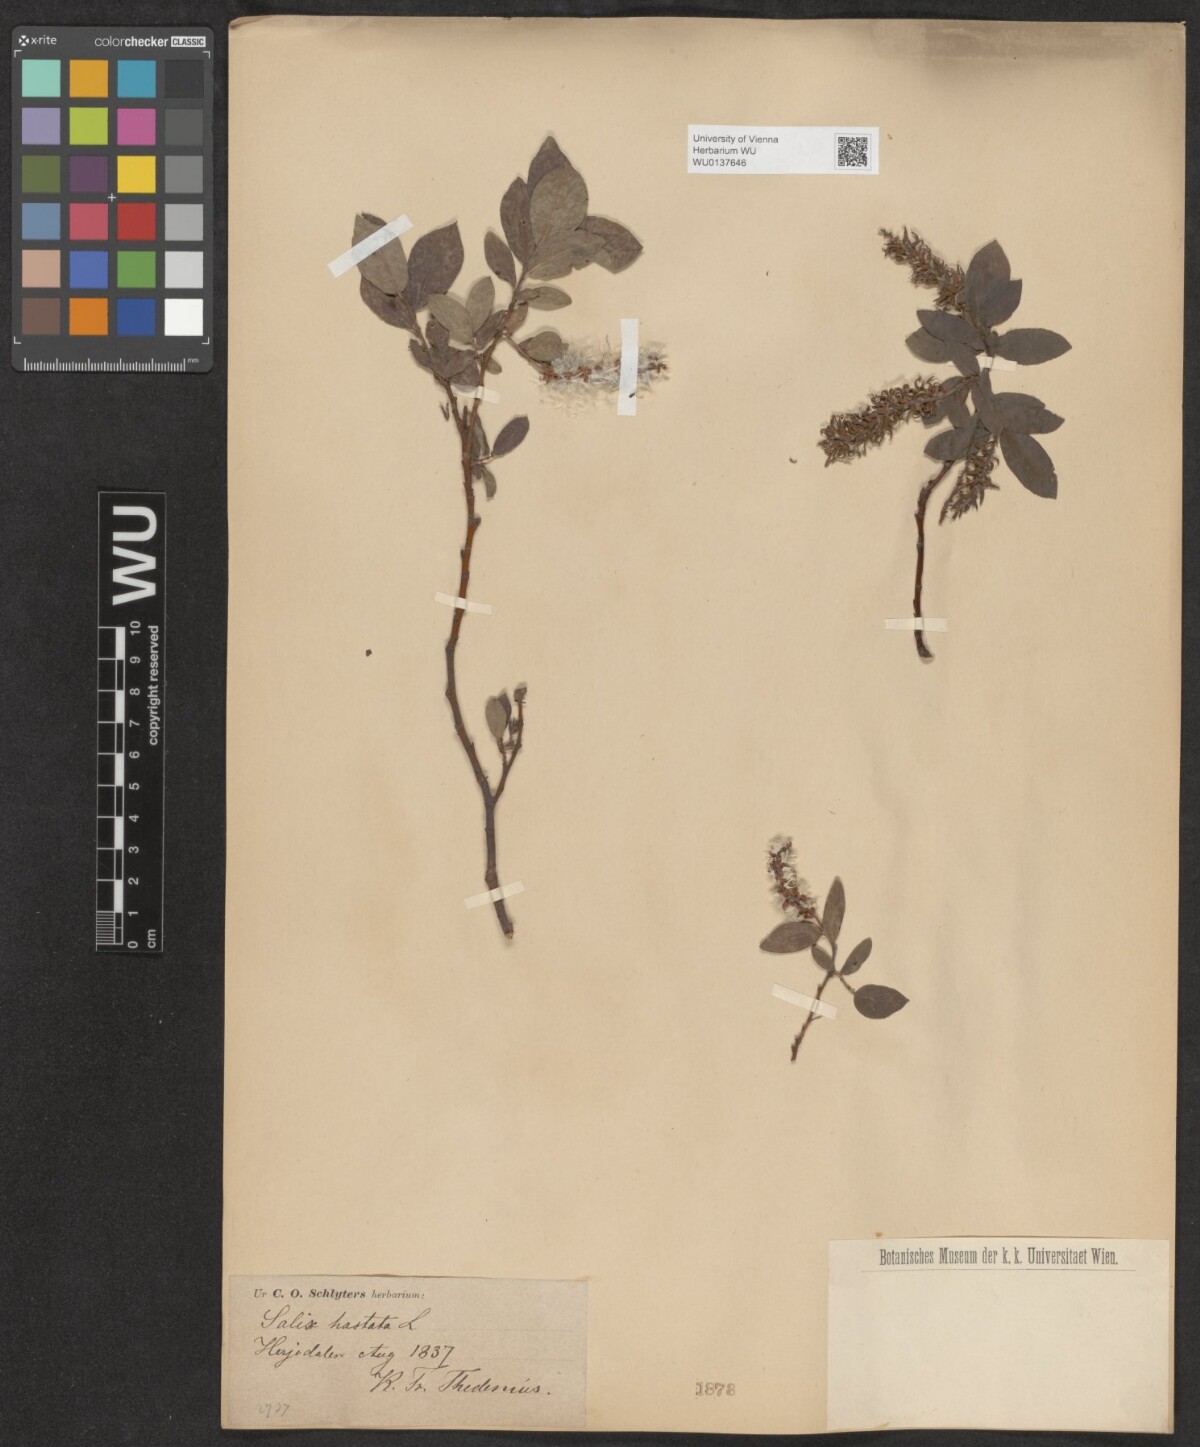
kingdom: Plantae
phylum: Tracheophyta
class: Magnoliopsida
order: Malpighiales
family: Salicaceae
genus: Salix
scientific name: Salix hastata
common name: Halberd willow
